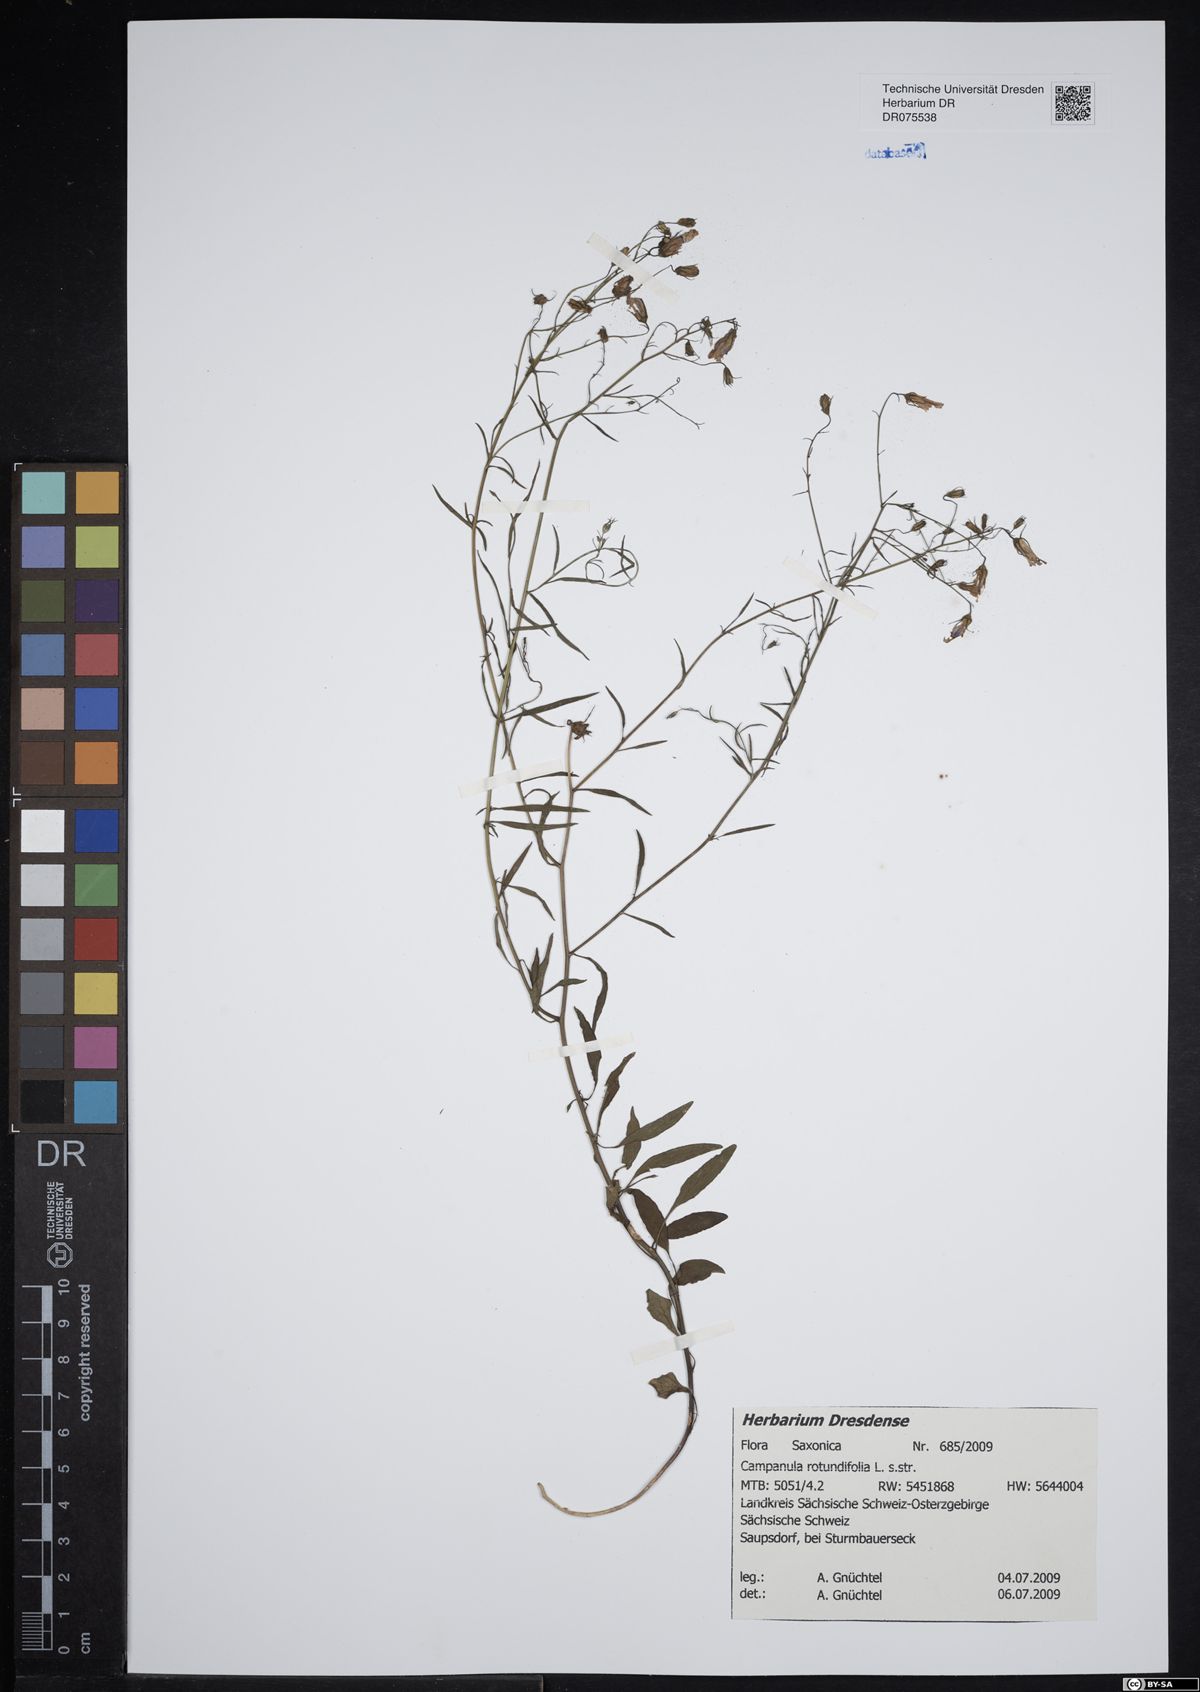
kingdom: Plantae
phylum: Tracheophyta
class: Magnoliopsida
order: Asterales
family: Campanulaceae
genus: Campanula
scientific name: Campanula rotundifolia
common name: Harebell
